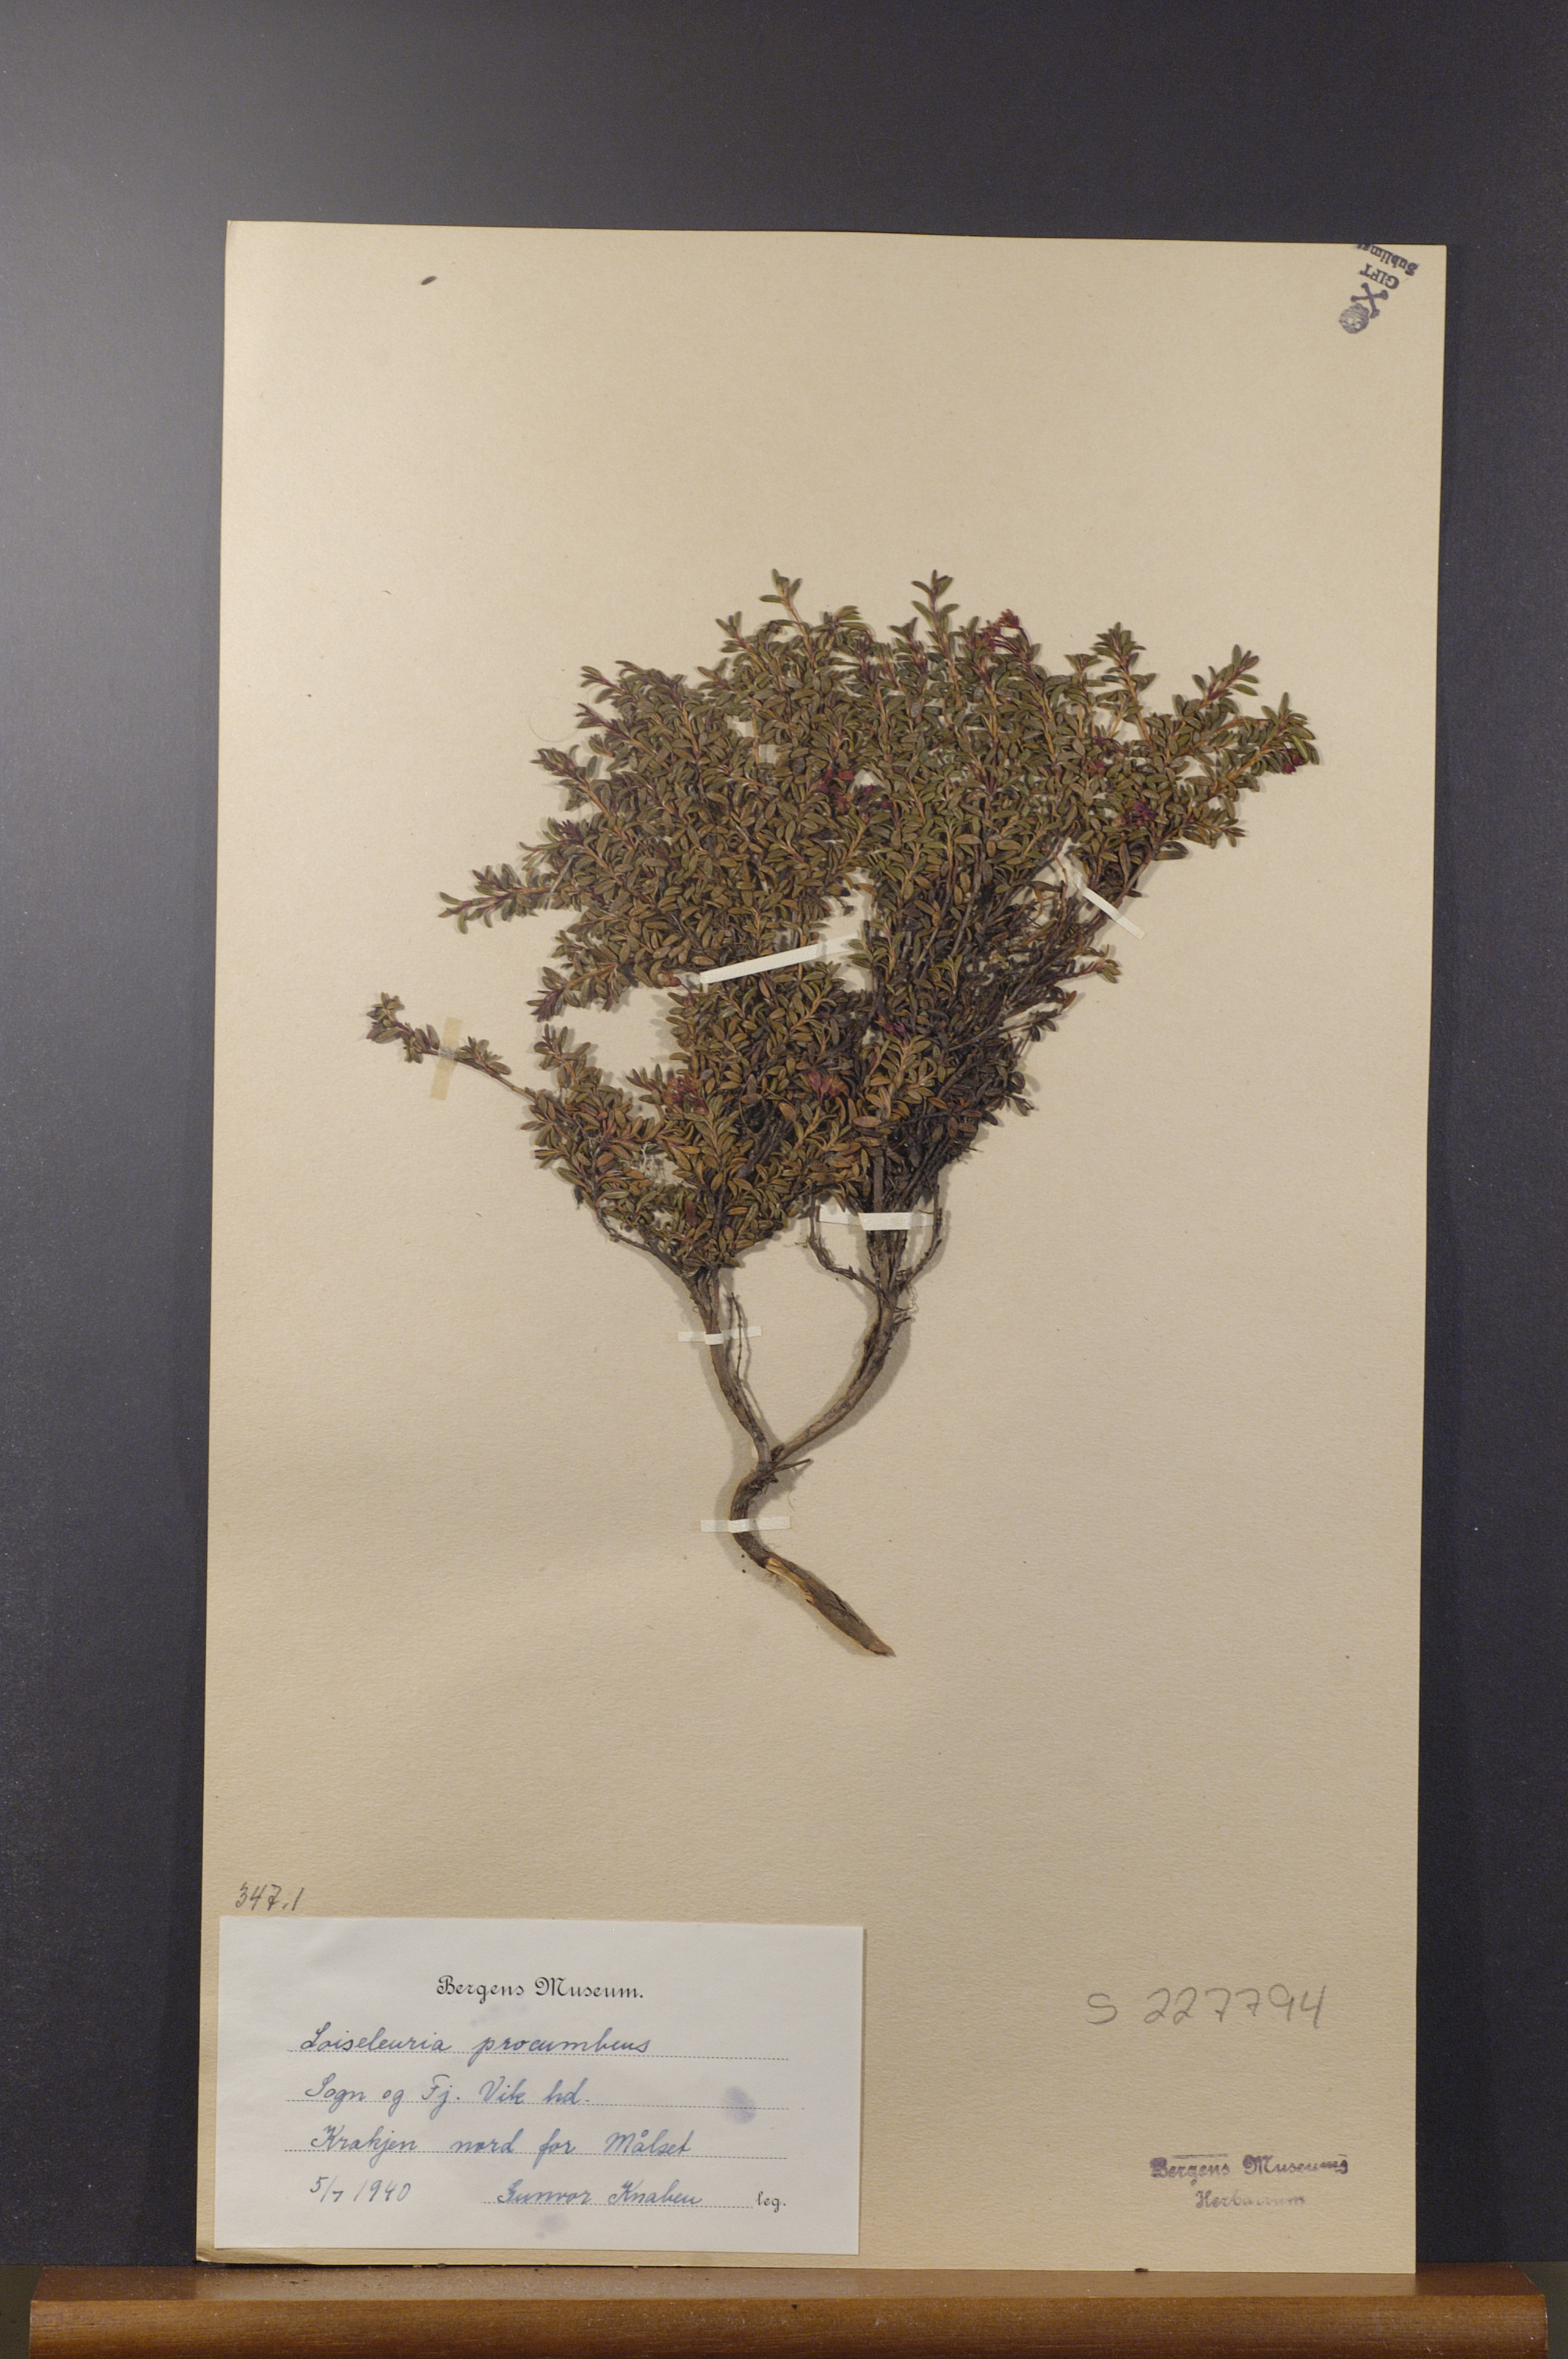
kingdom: Plantae
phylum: Tracheophyta
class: Magnoliopsida
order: Ericales
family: Ericaceae
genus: Kalmia
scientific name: Kalmia procumbens
